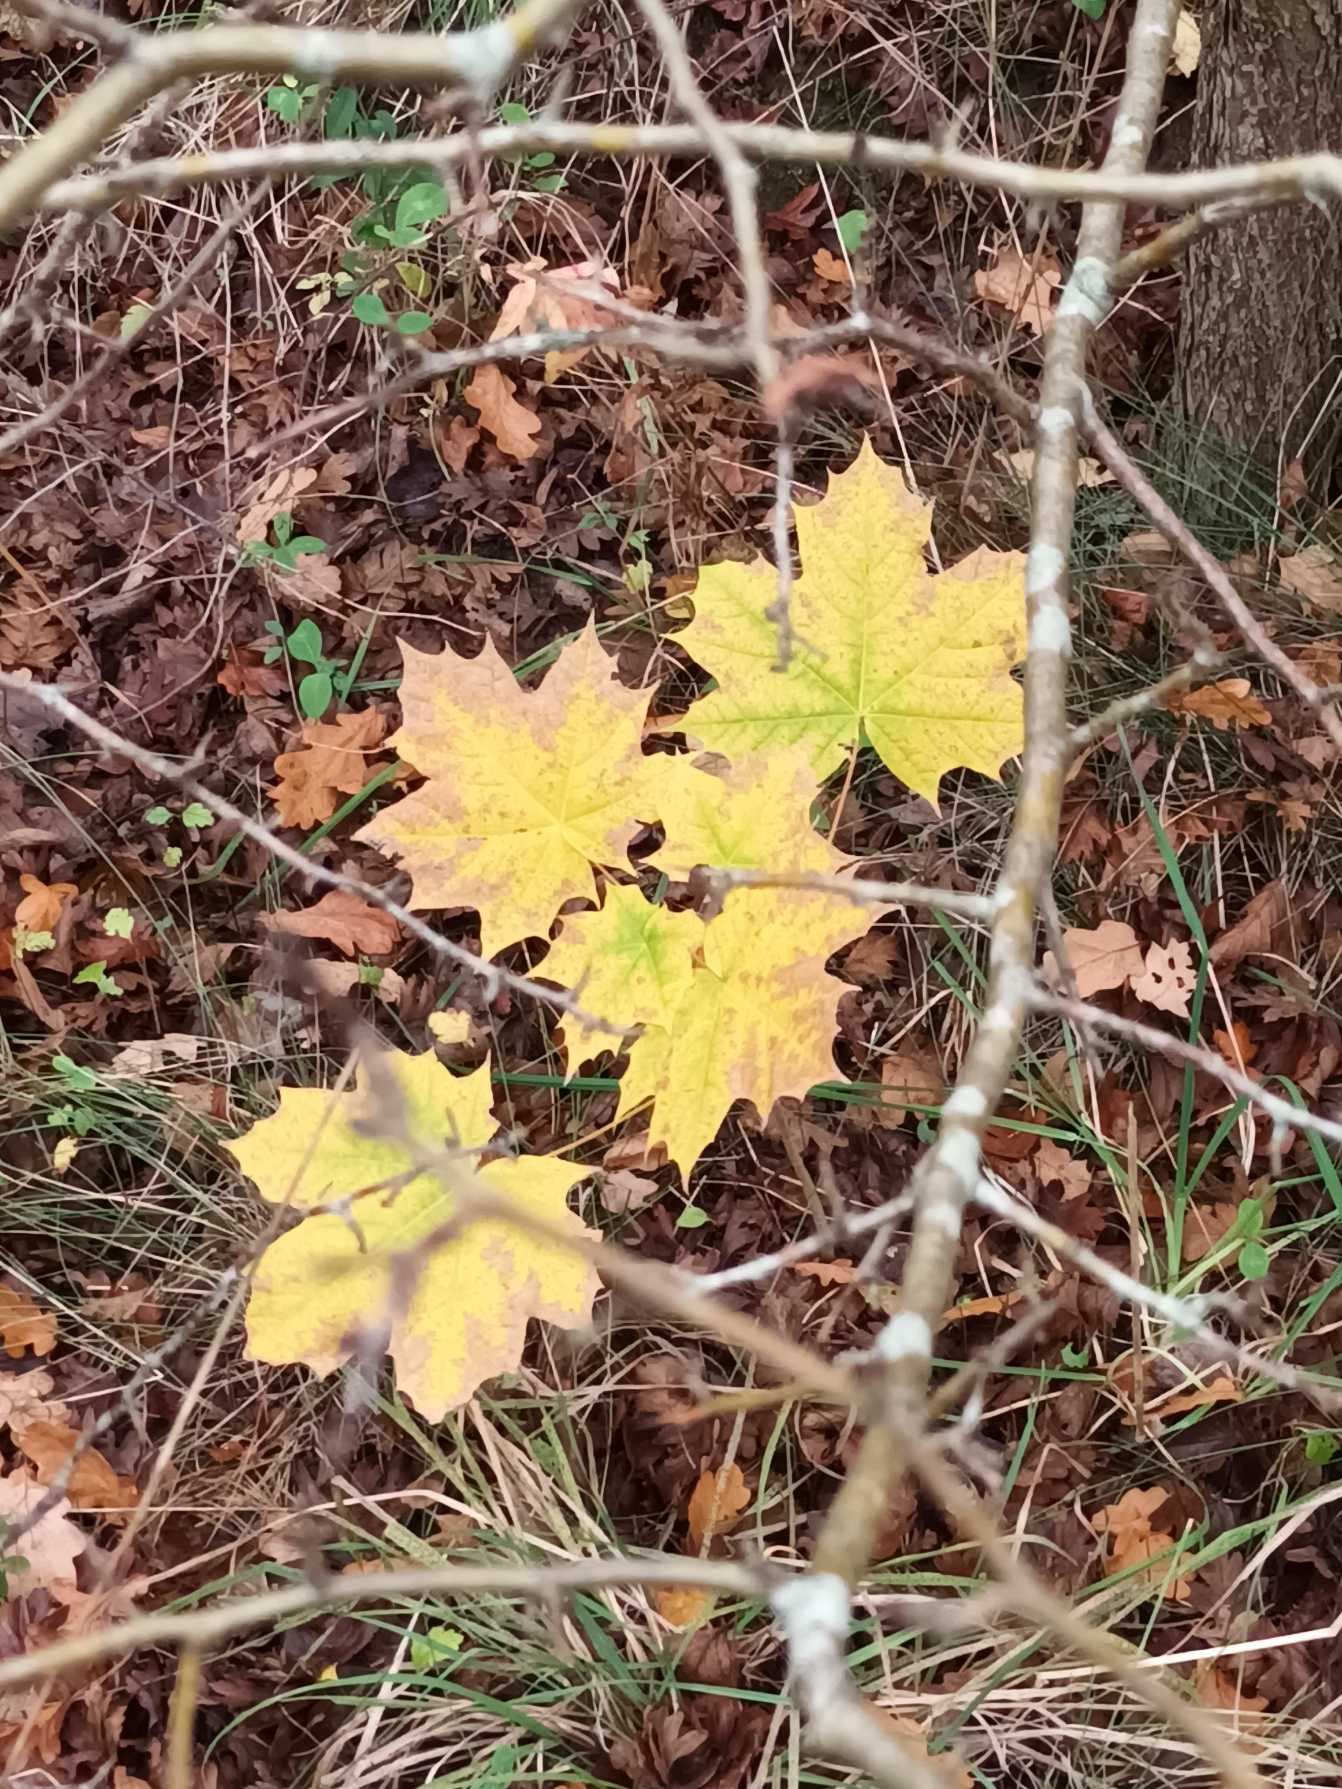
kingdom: Plantae
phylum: Tracheophyta
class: Magnoliopsida
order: Sapindales
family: Sapindaceae
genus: Acer
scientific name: Acer platanoides
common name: Spids-løn
